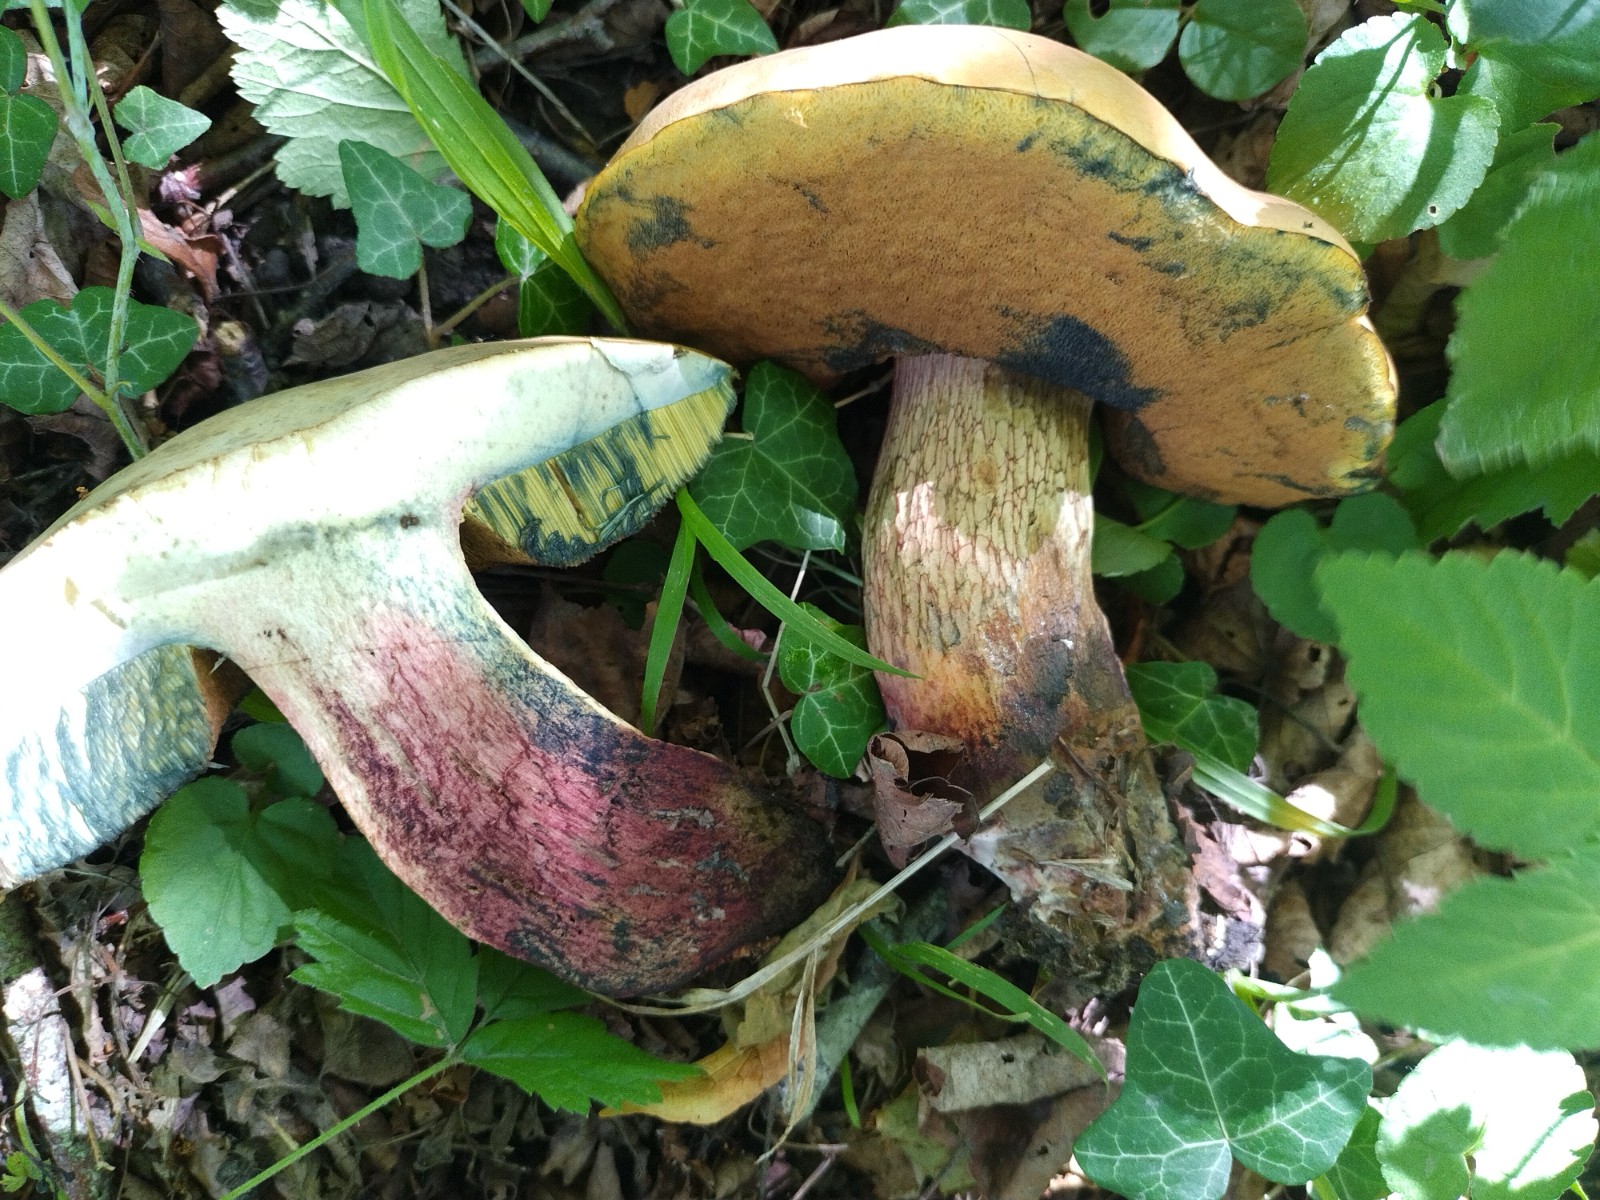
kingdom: Fungi
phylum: Basidiomycota
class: Agaricomycetes
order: Boletales
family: Boletaceae
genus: Suillellus
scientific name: Suillellus luridus
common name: netstokket indigorørhat
